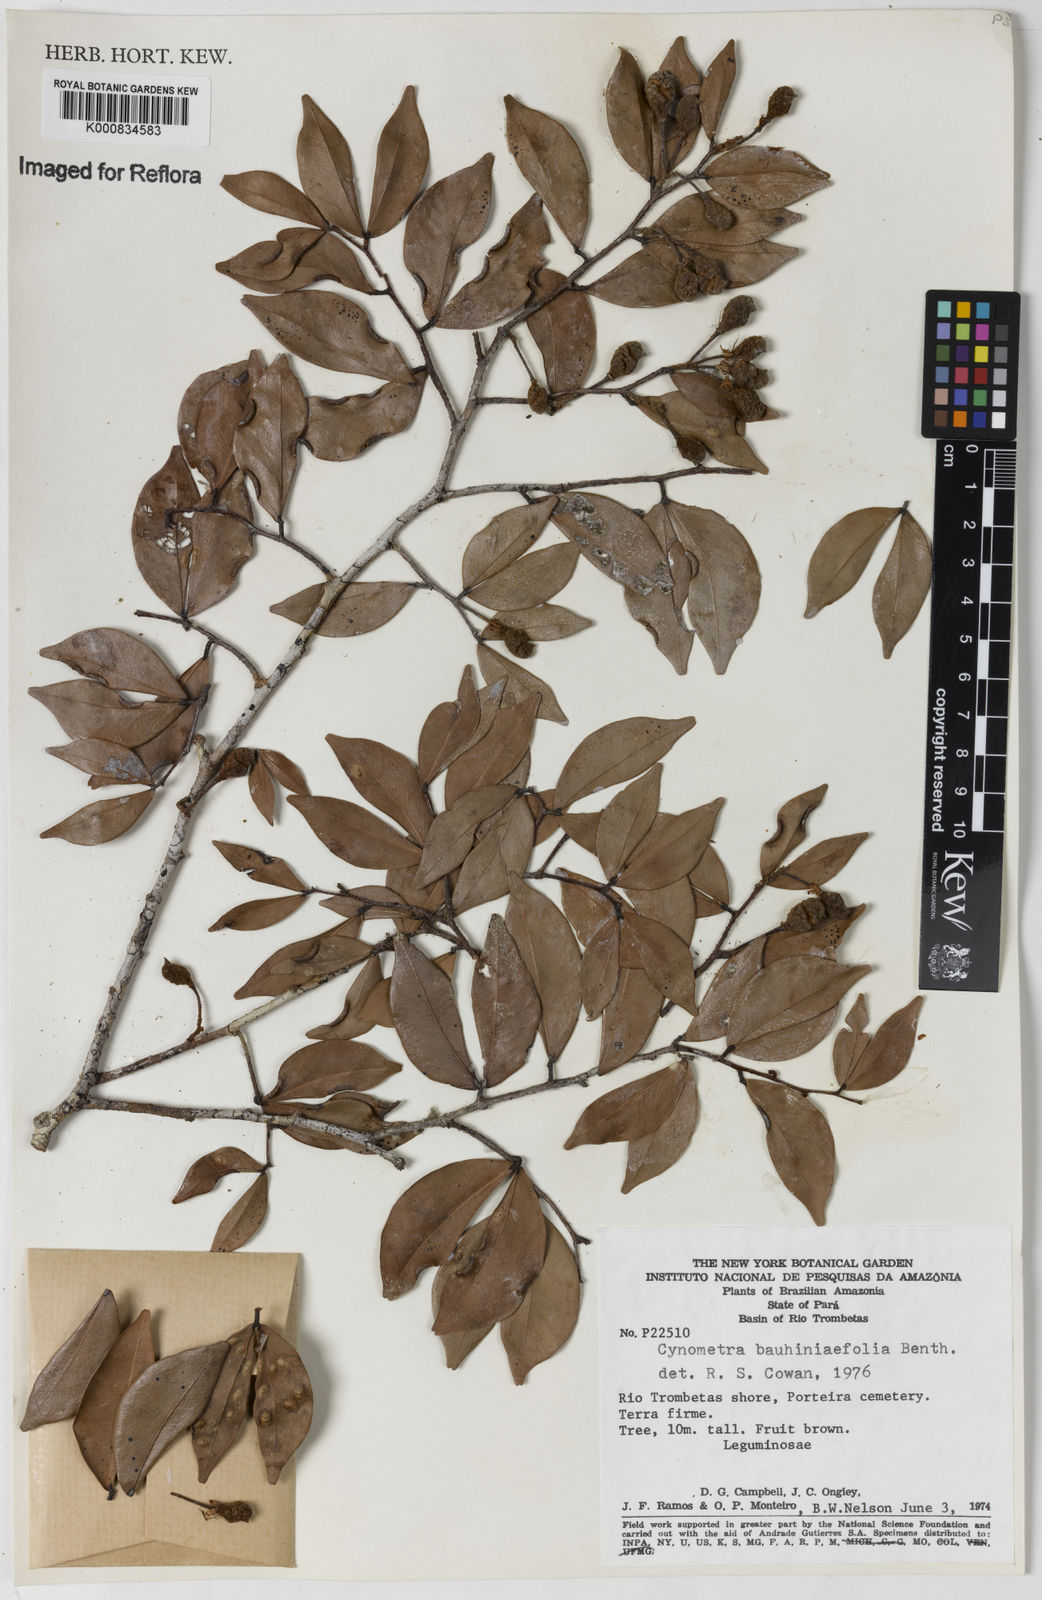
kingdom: Plantae
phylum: Tracheophyta
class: Magnoliopsida
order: Fabales
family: Fabaceae
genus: Cynometra
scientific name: Cynometra bauhiniifolia
